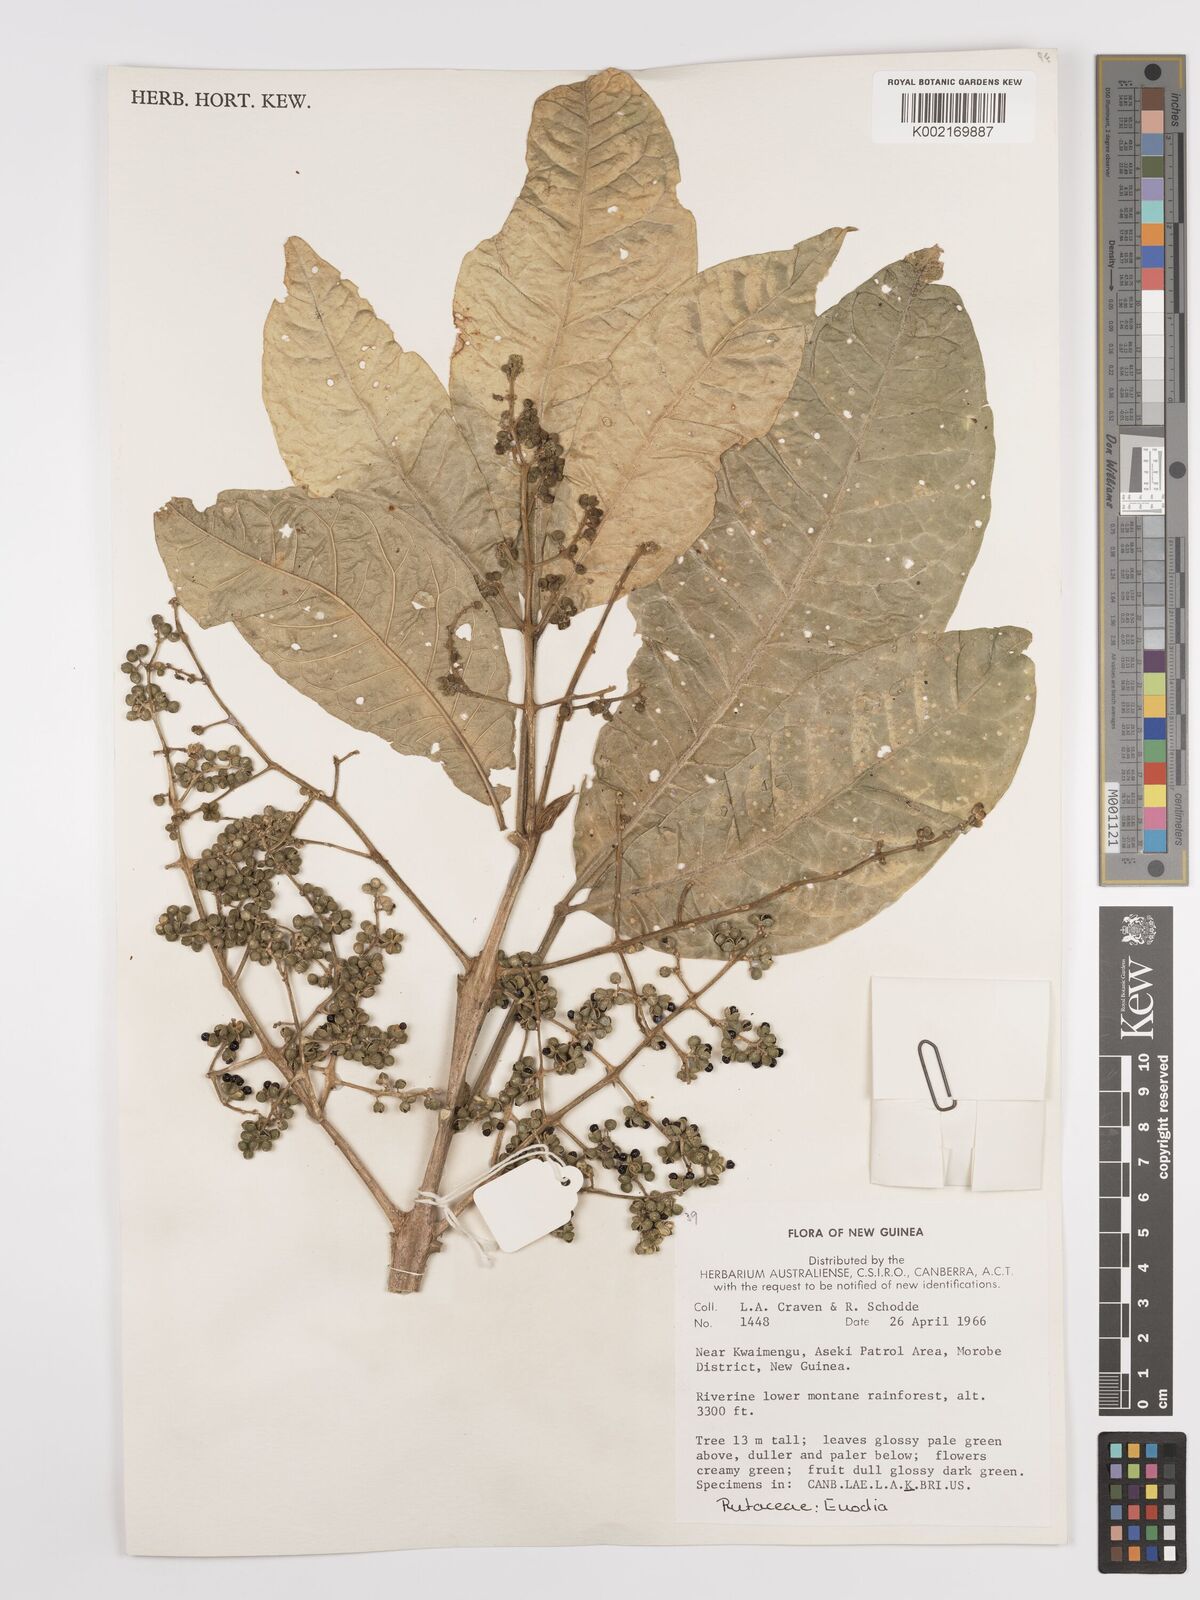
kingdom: Plantae
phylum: Tracheophyta
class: Magnoliopsida
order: Sapindales
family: Rutaceae
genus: Euodia
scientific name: Euodia
